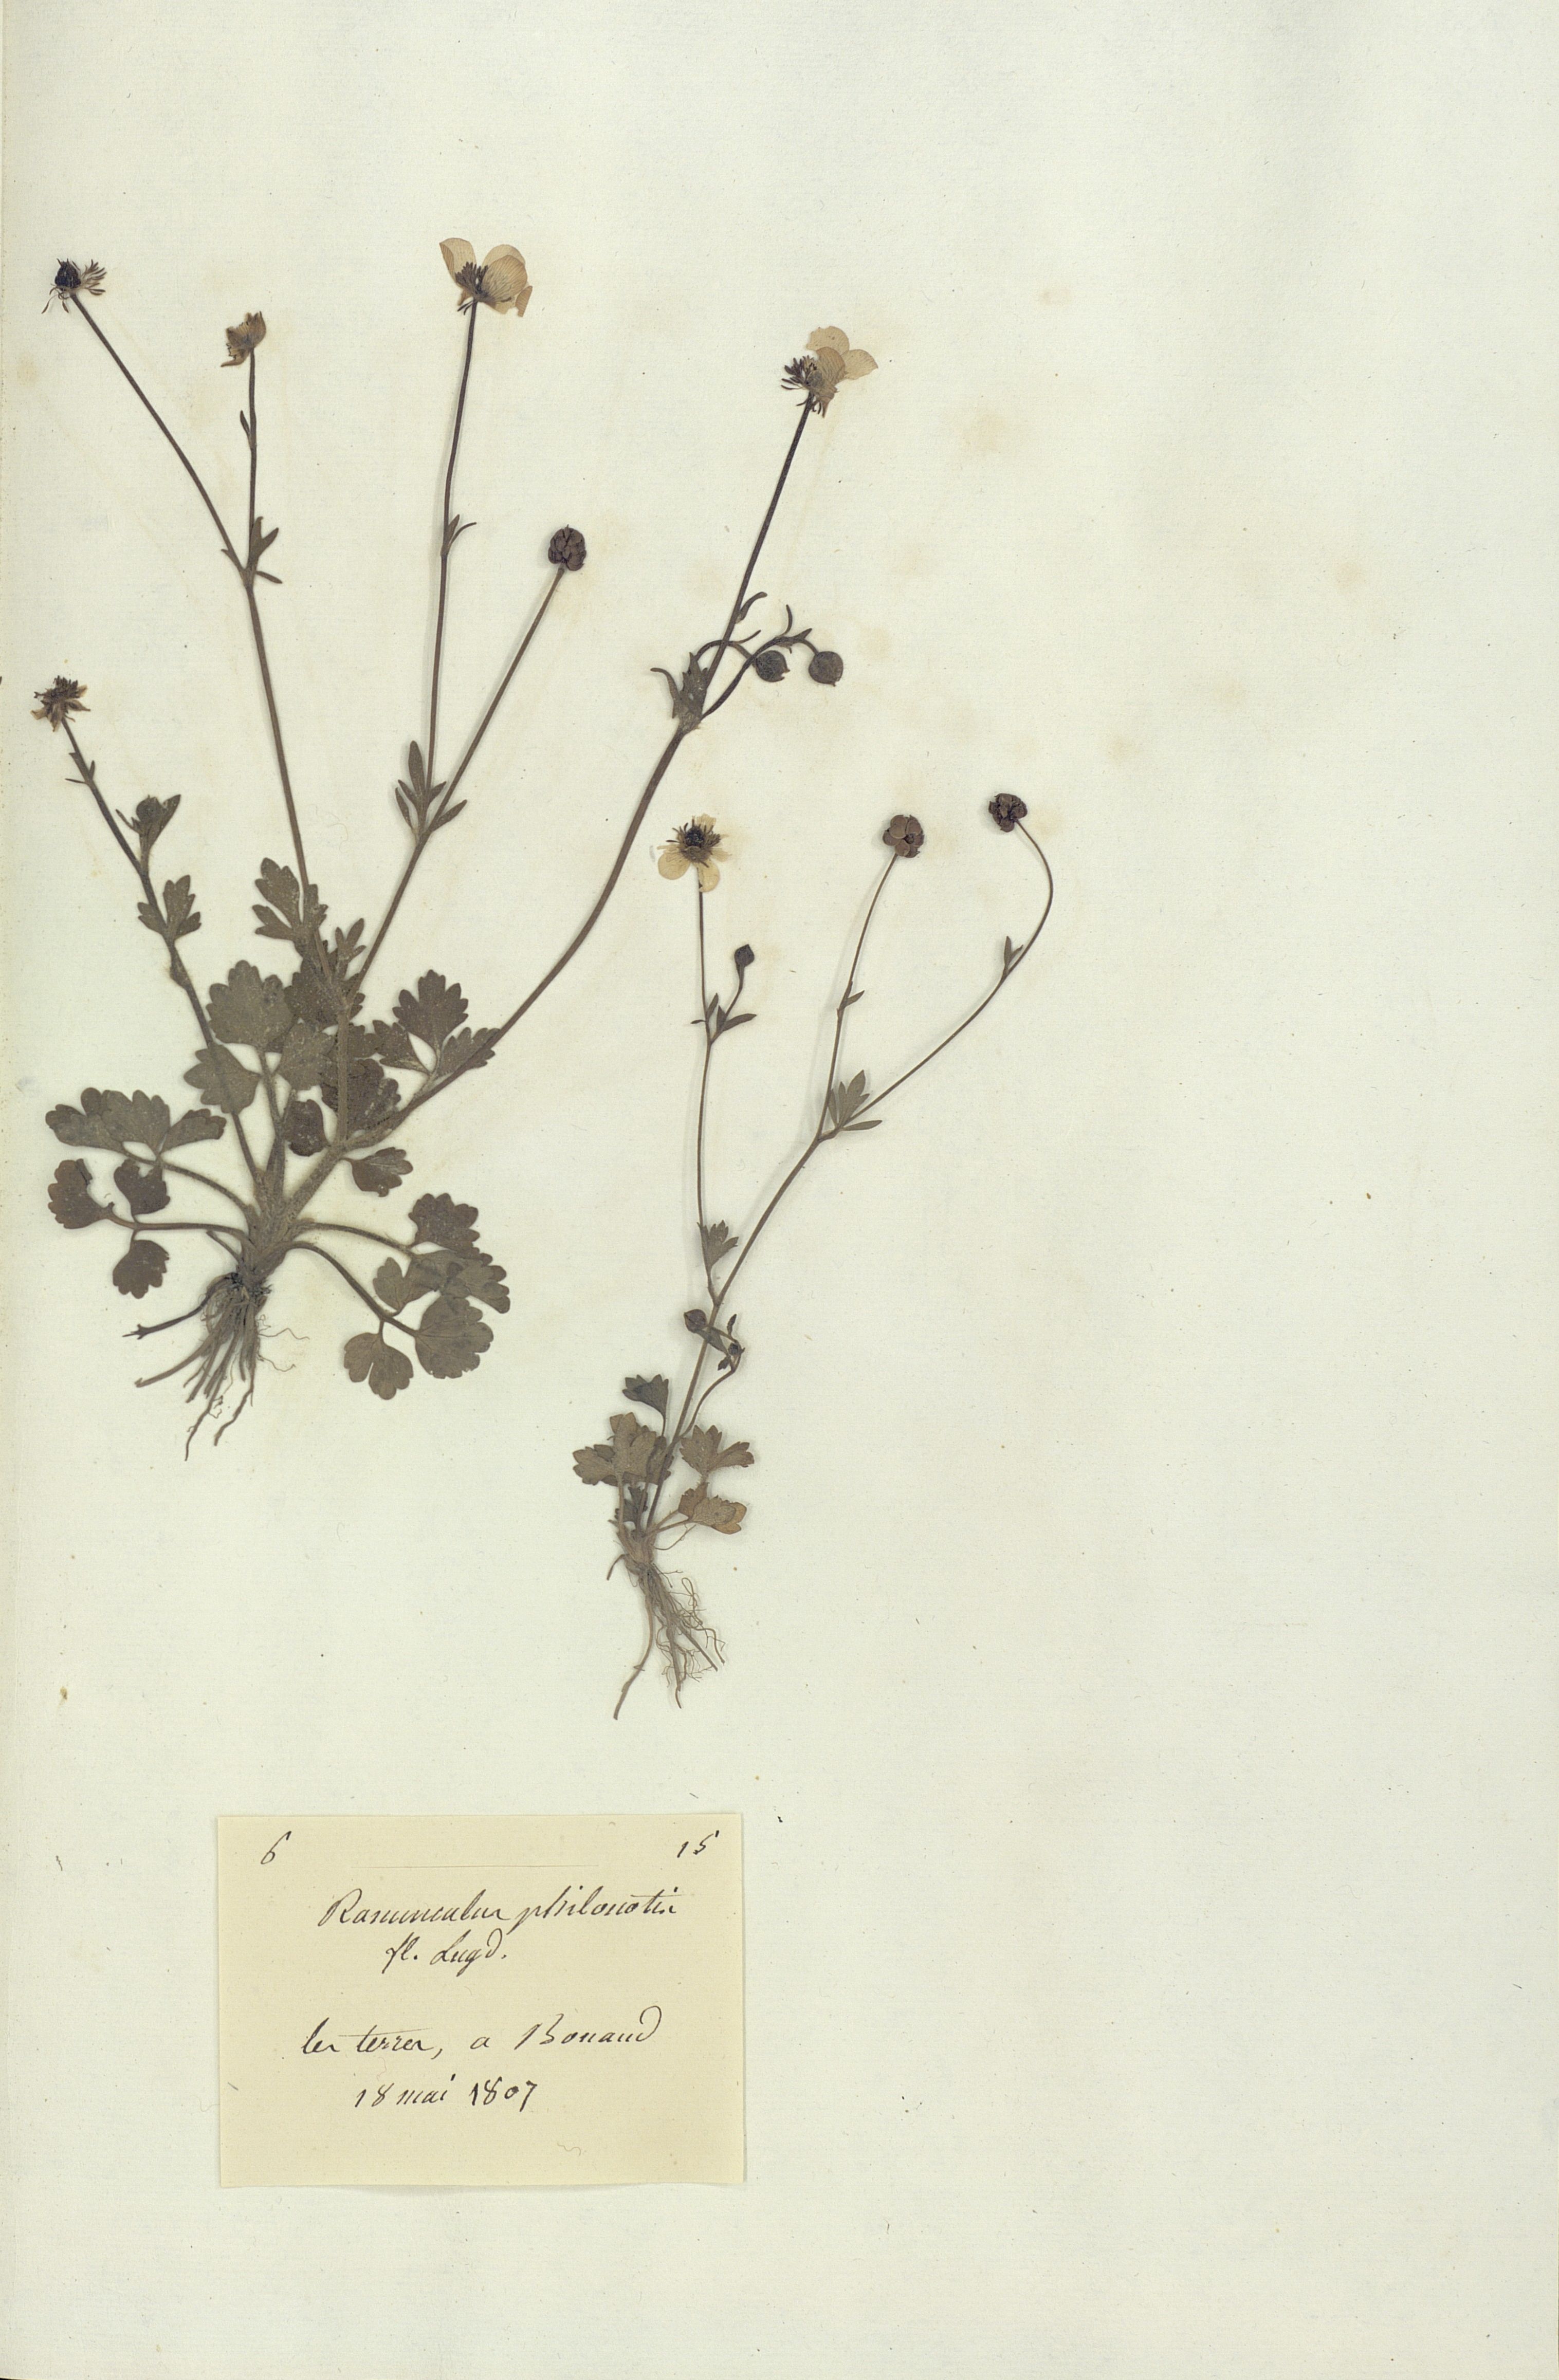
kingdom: Plantae
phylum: Tracheophyta
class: Magnoliopsida
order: Ranunculales
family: Ranunculaceae
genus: Ranunculus
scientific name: Ranunculus
